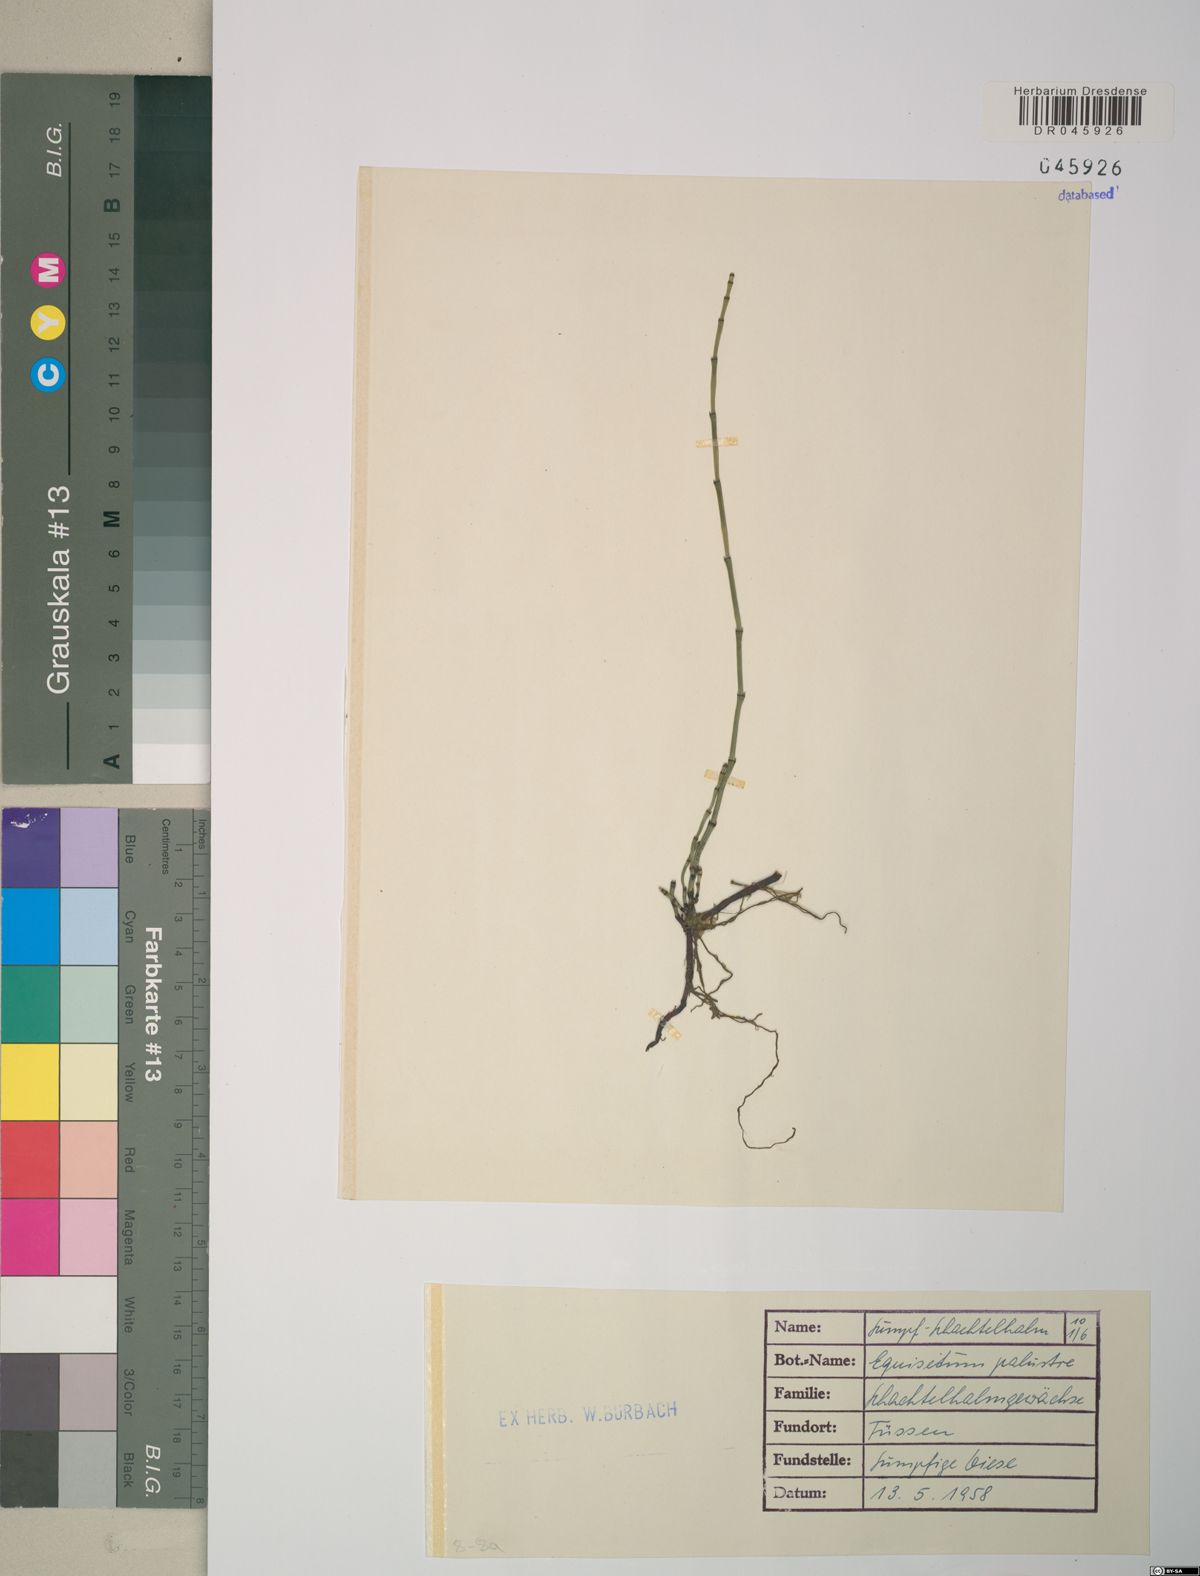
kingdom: Plantae
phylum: Tracheophyta
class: Polypodiopsida
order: Equisetales
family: Equisetaceae
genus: Equisetum
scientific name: Equisetum palustre
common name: Marsh horsetail
